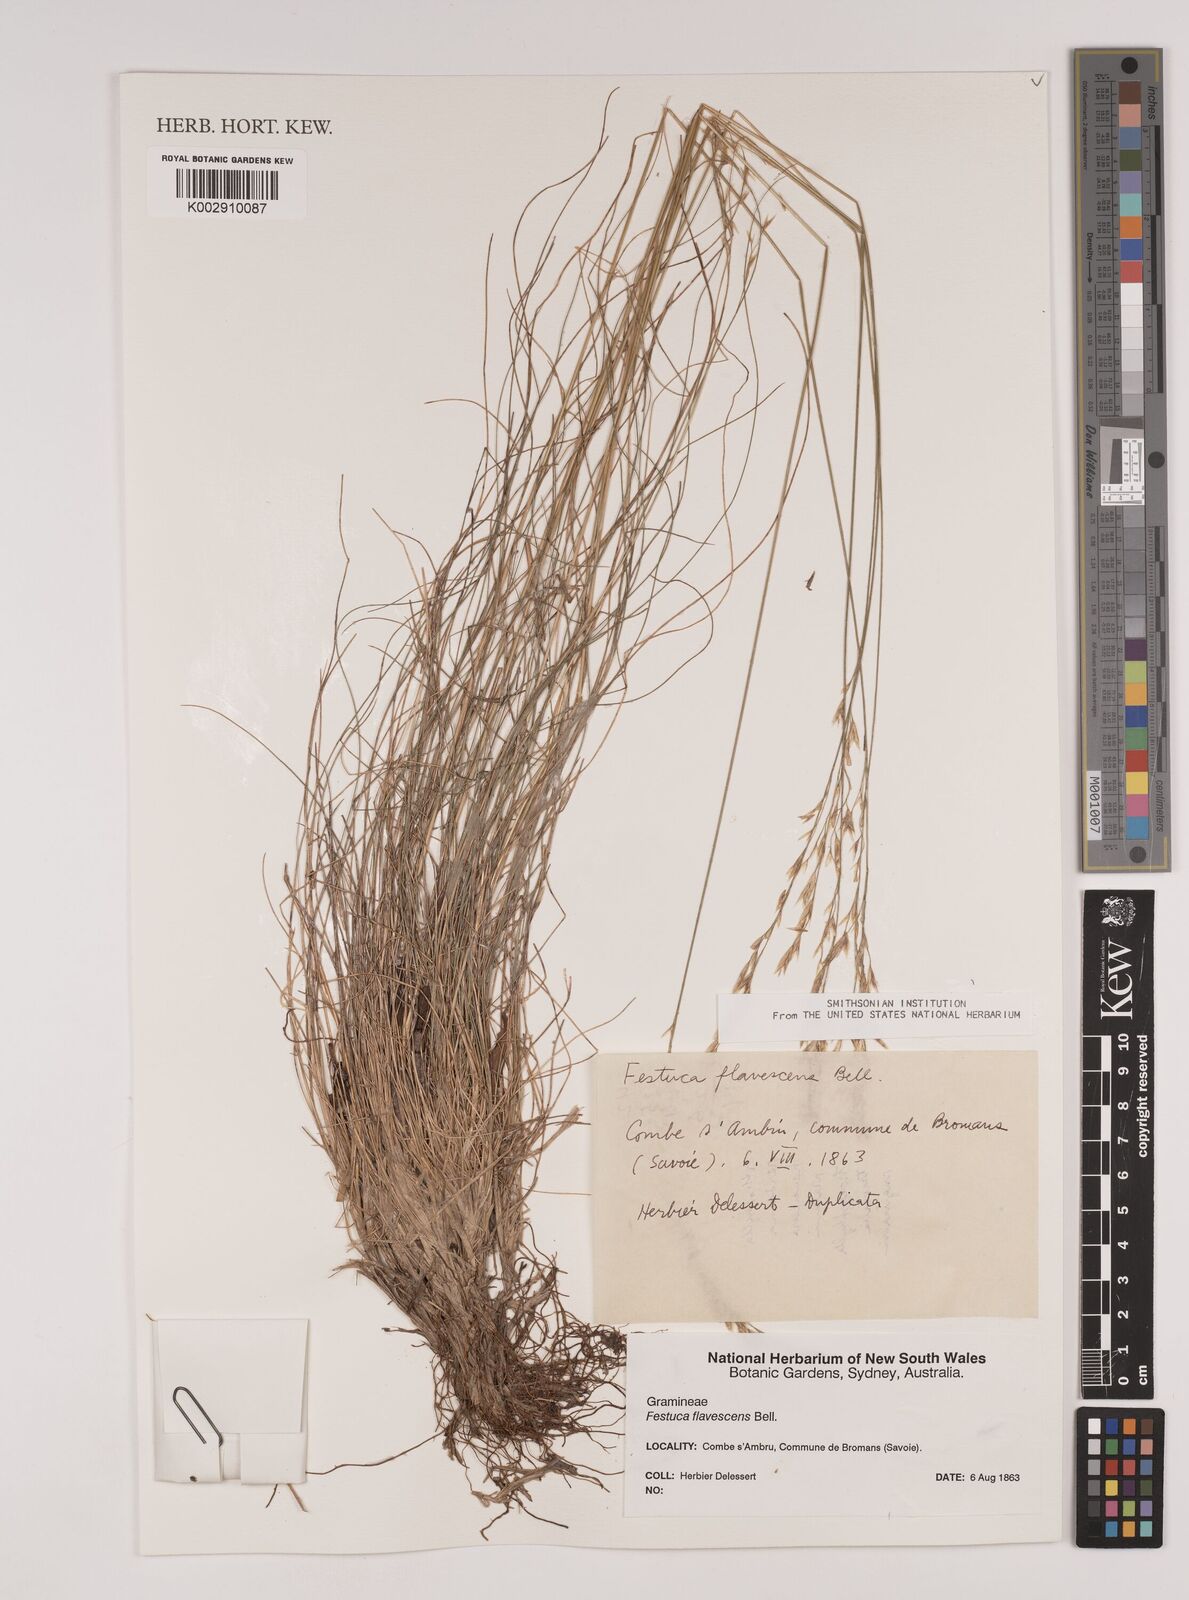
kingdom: Plantae
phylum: Tracheophyta
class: Liliopsida
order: Poales
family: Poaceae
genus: Festuca
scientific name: Festuca flavescens
